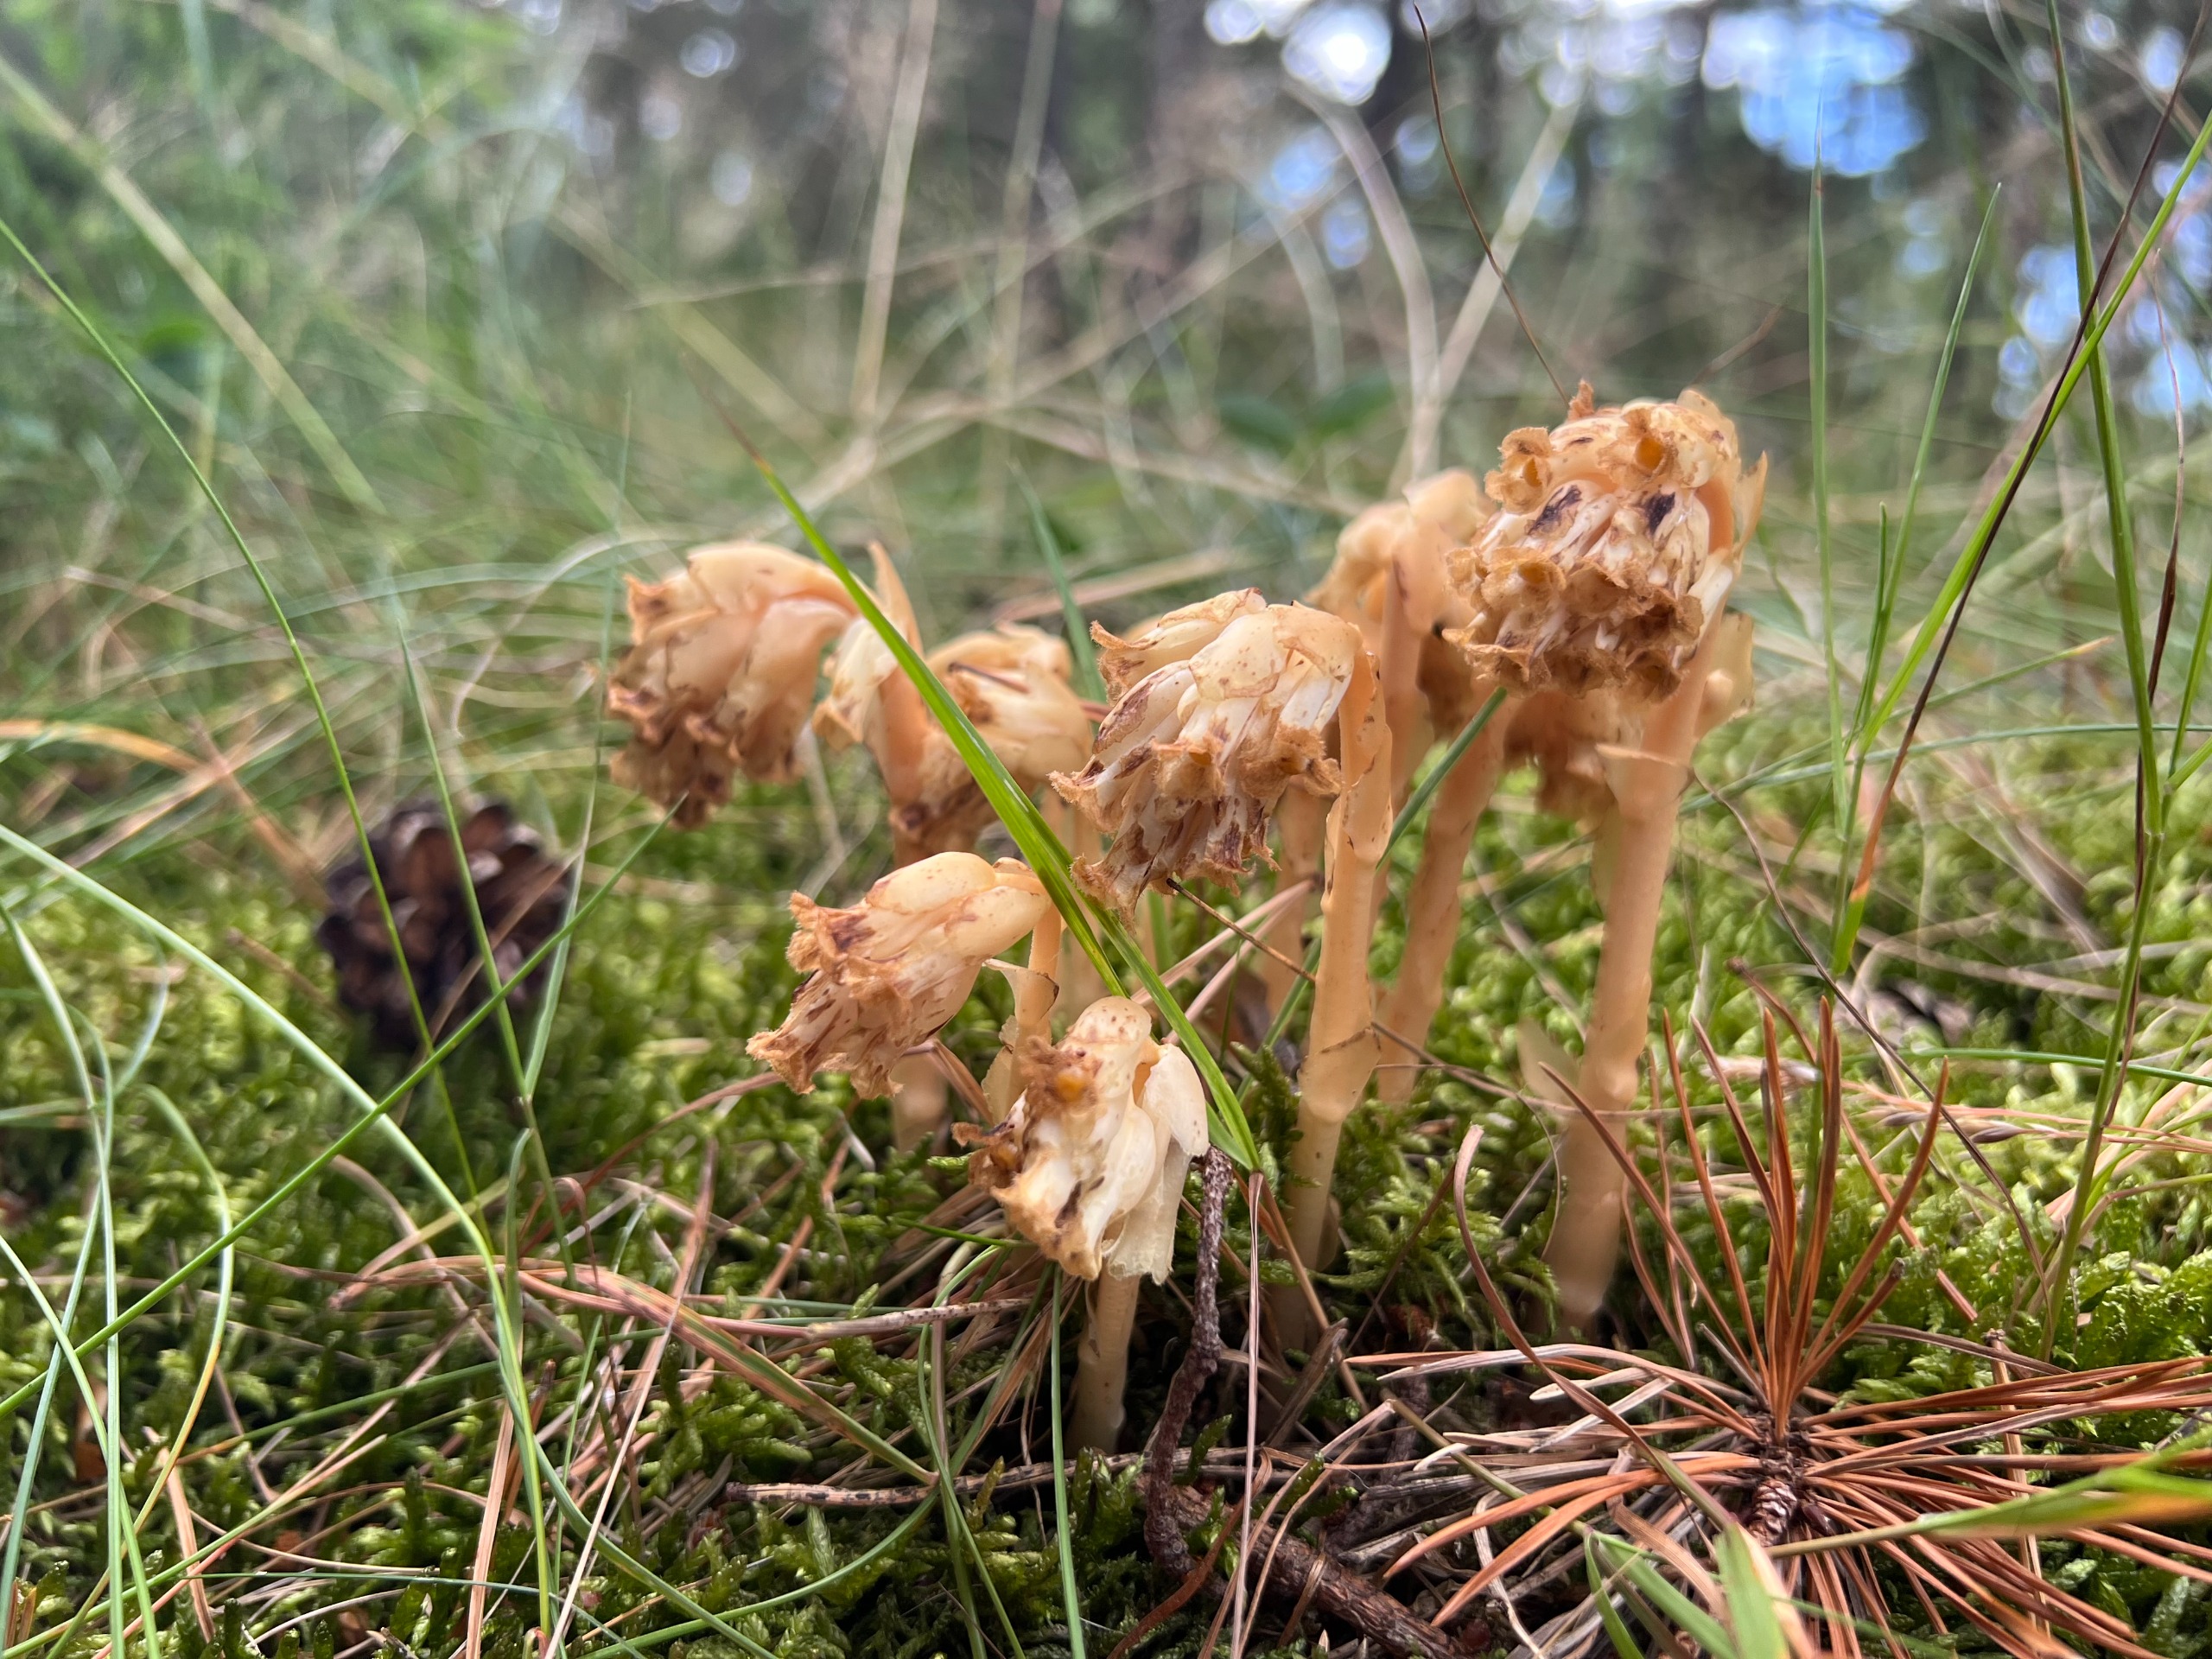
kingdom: Plantae
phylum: Tracheophyta
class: Magnoliopsida
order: Ericales
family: Ericaceae
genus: Hypopitys
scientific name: Hypopitys monotropa
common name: Håret snylterod
